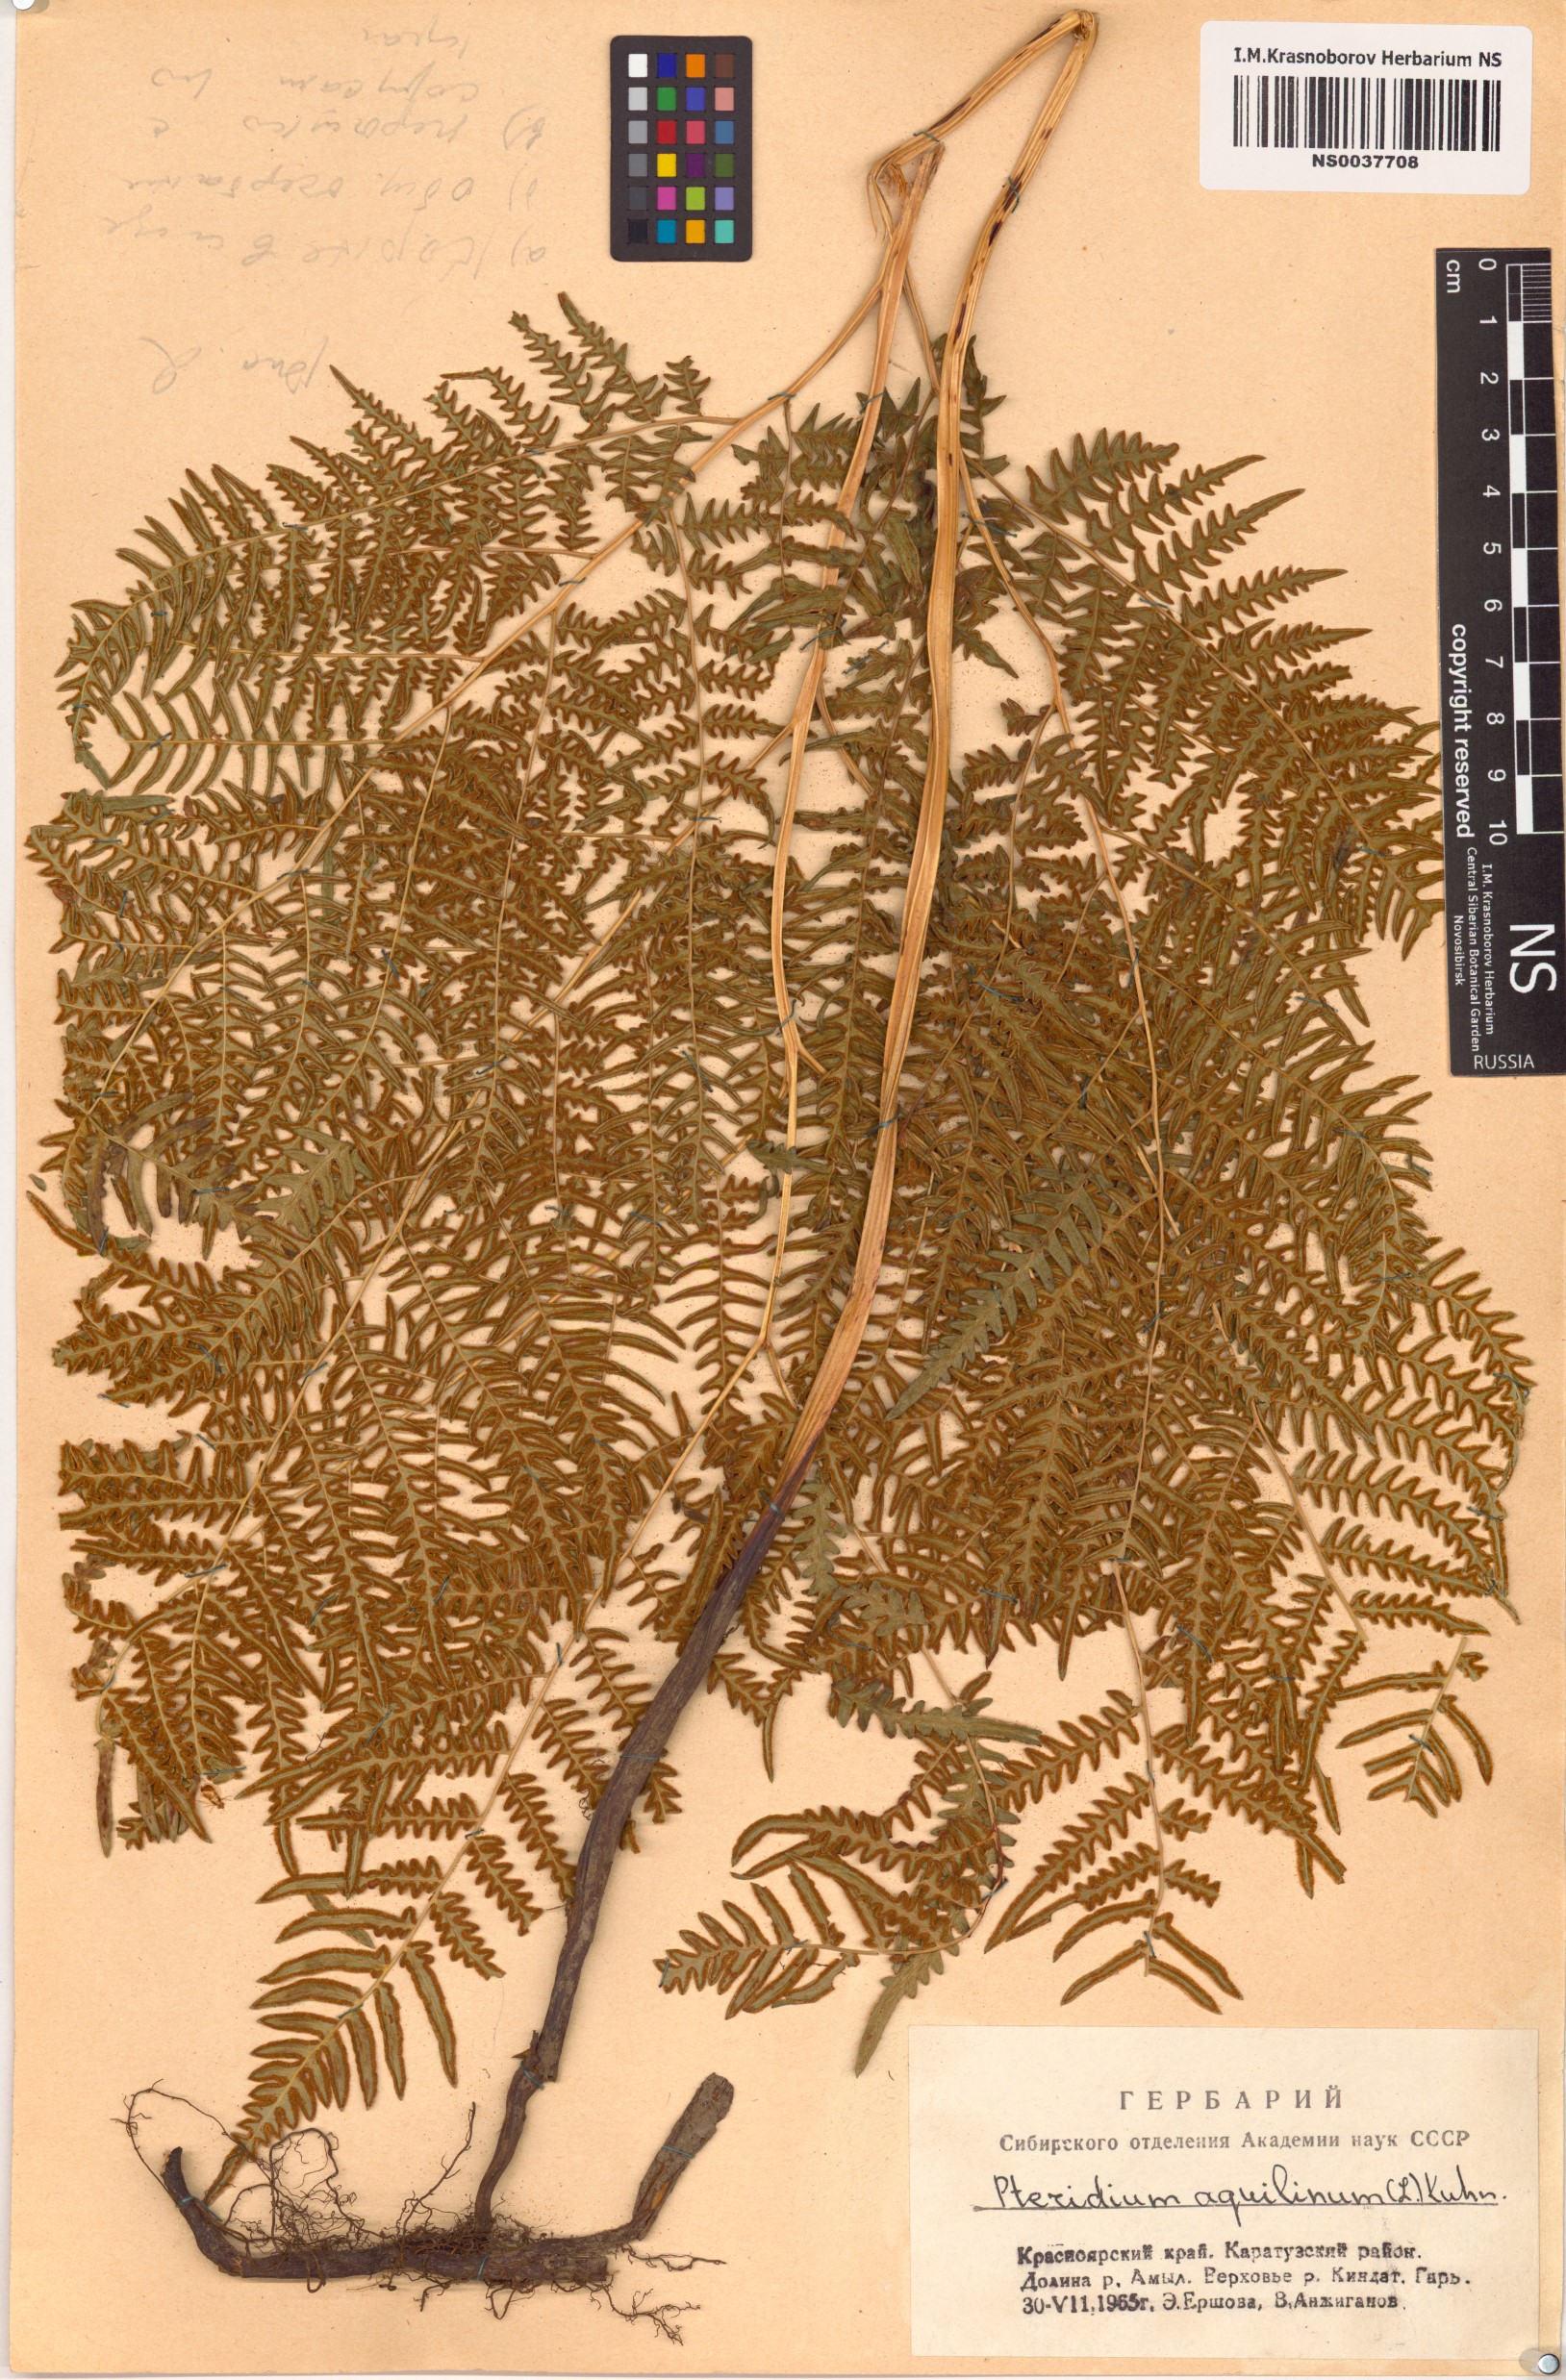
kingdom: Plantae
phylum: Tracheophyta
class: Polypodiopsida
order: Polypodiales
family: Dennstaedtiaceae
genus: Pteridium
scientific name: Pteridium aquilinum
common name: Bracken
